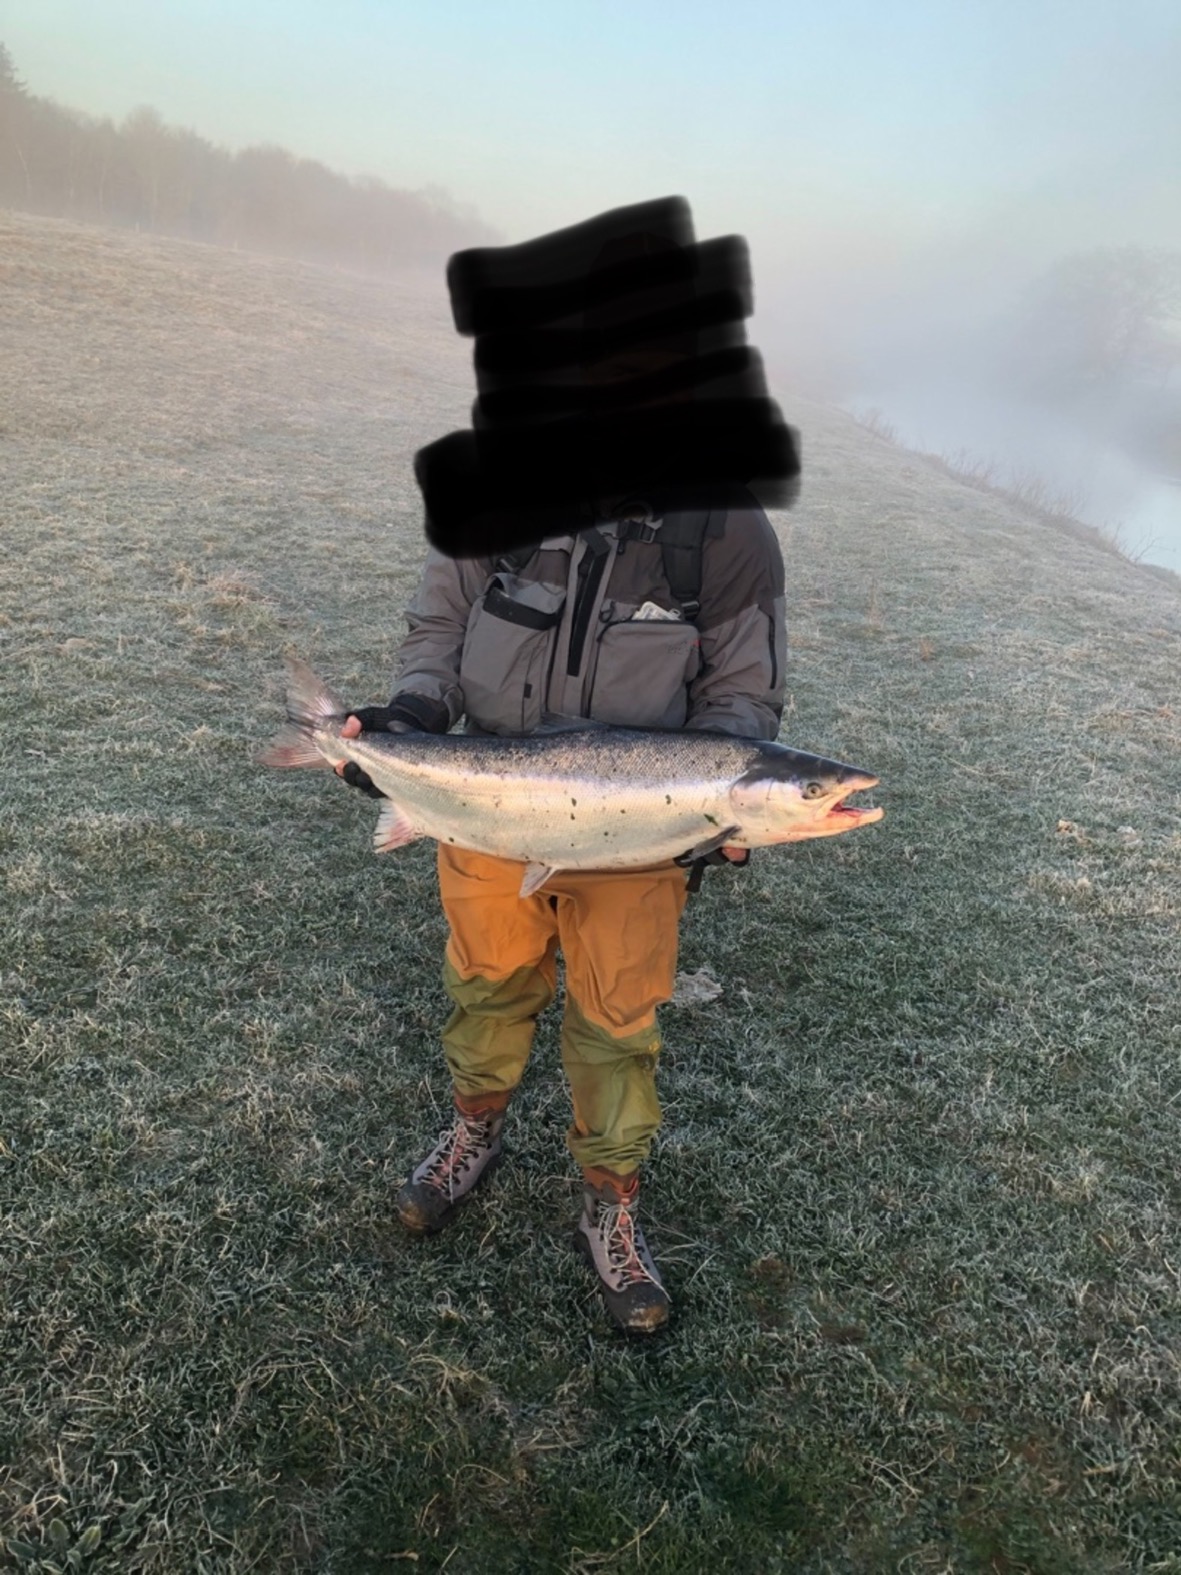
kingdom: Animalia
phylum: Chordata
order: Salmoniformes
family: Salmonidae
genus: Salmo
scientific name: Salmo salar
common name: Laks
